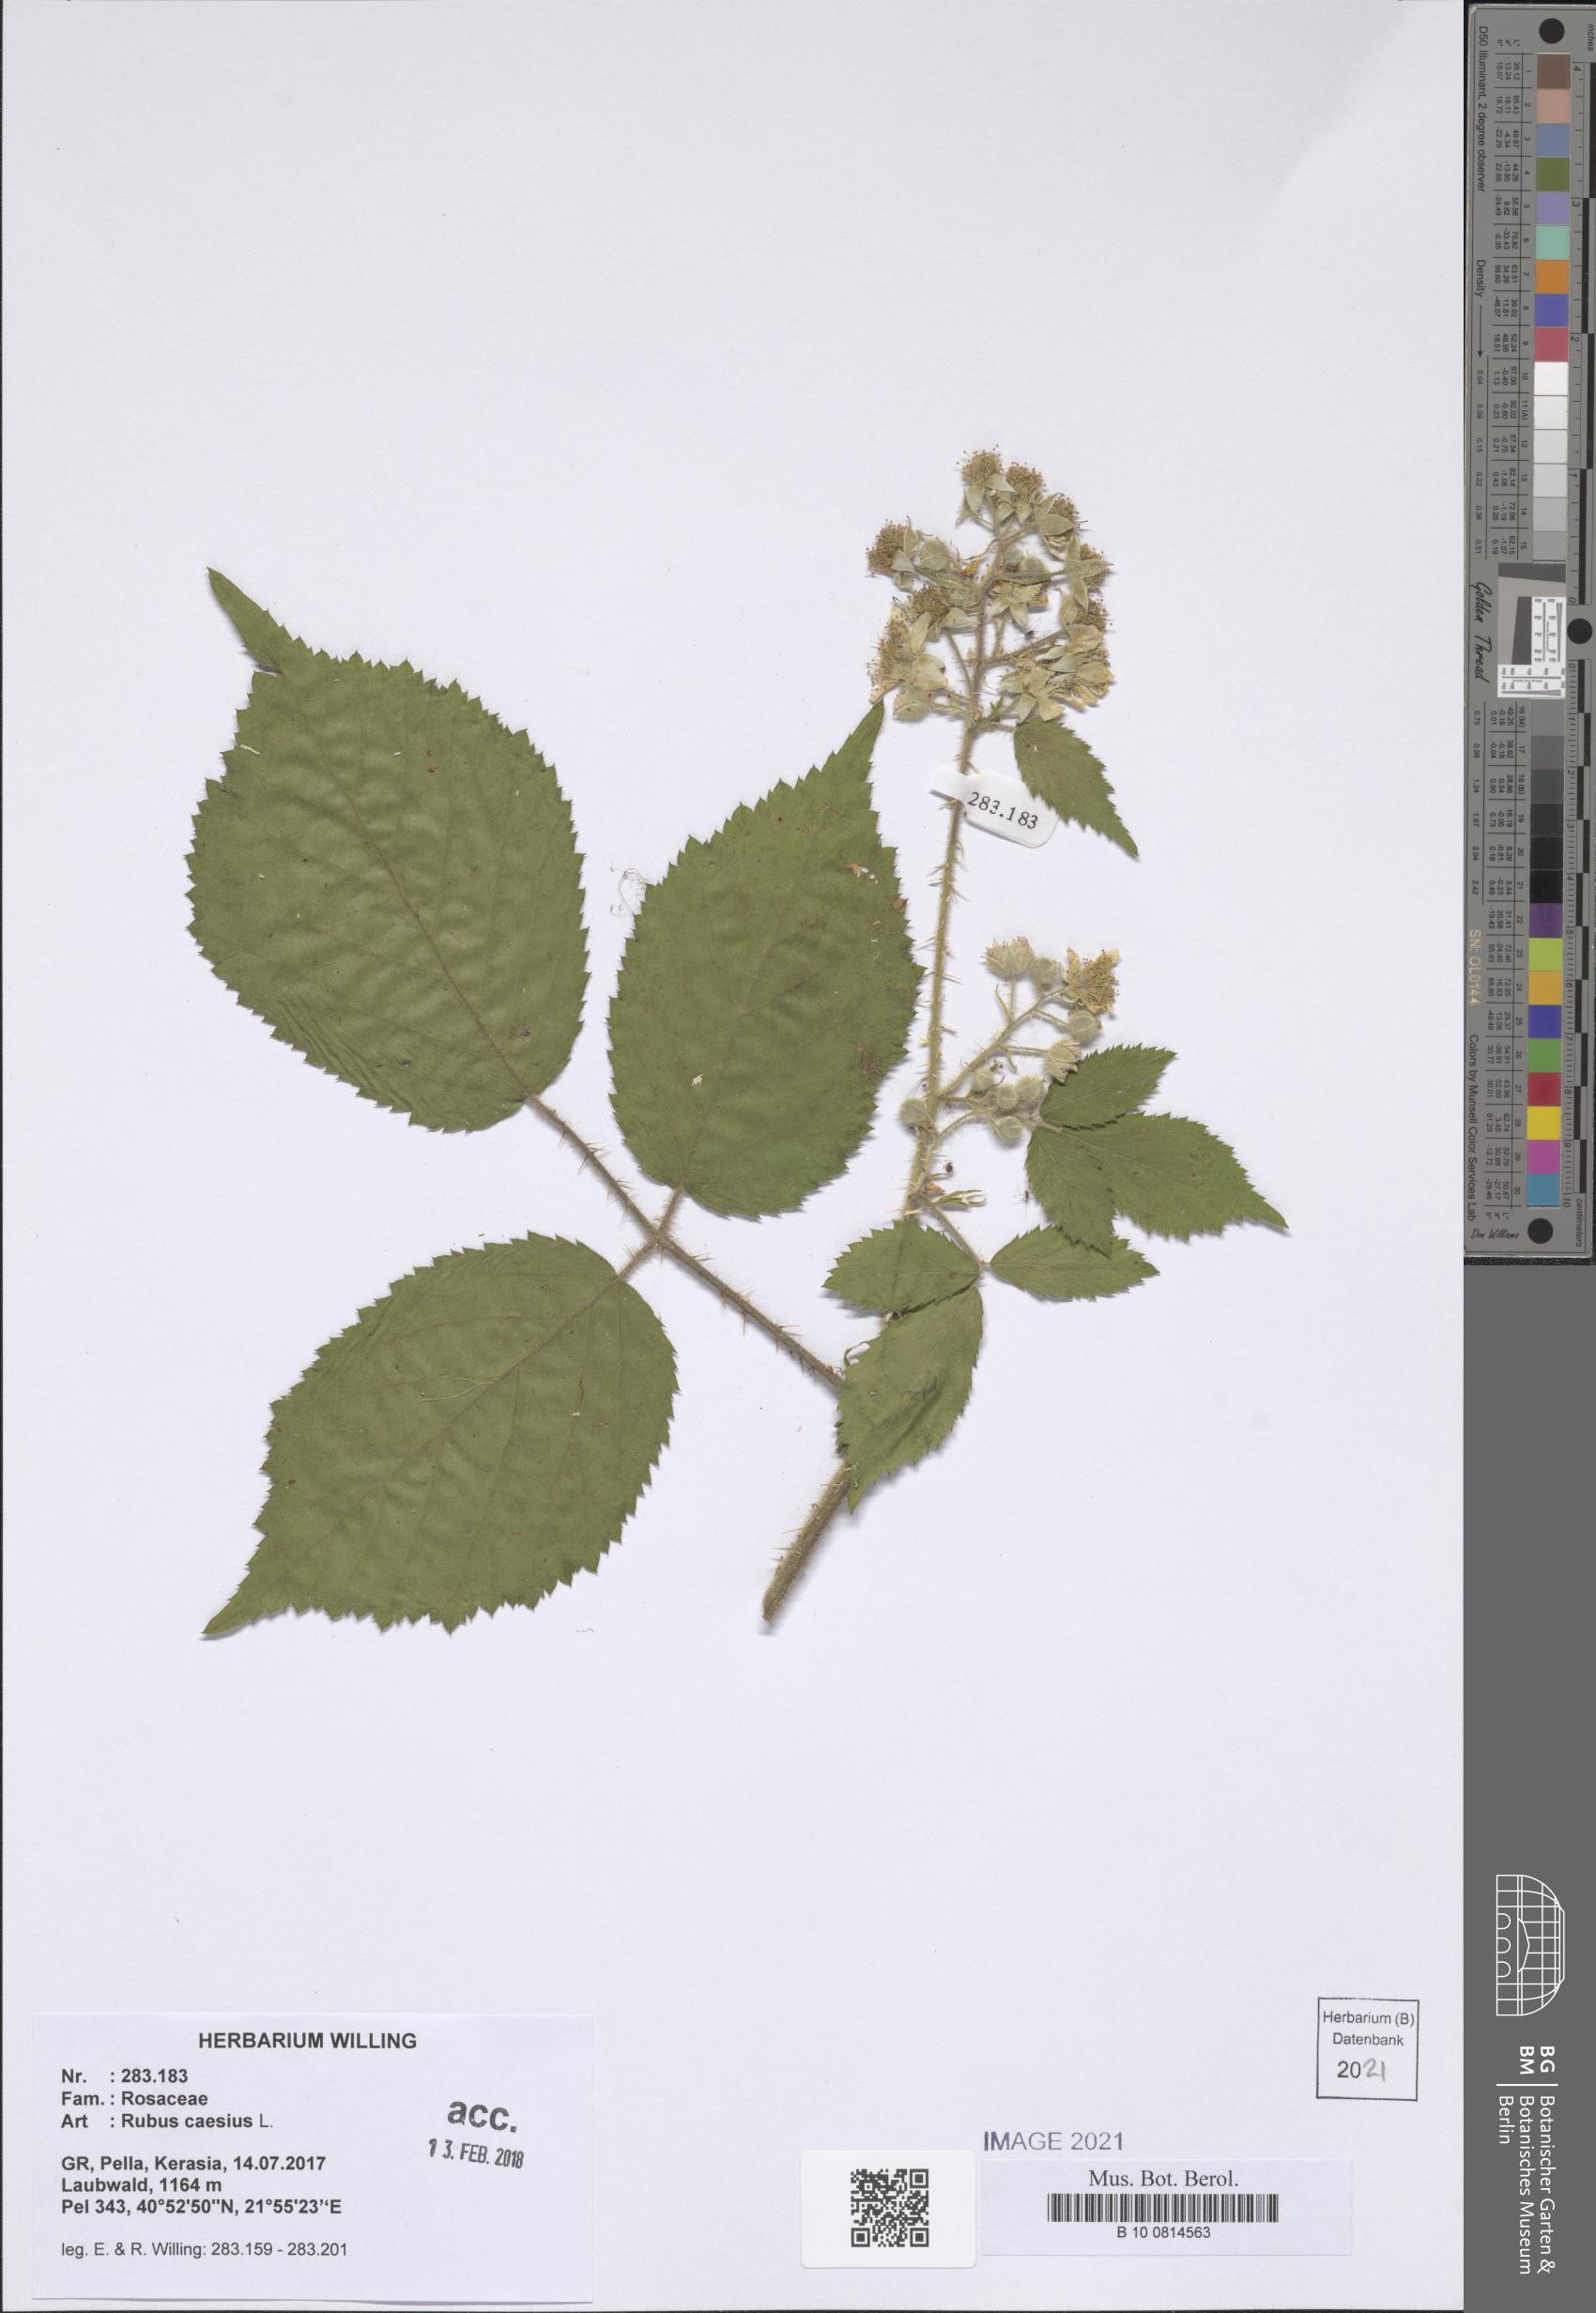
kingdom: Plantae
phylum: Tracheophyta
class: Magnoliopsida
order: Rosales
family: Rosaceae
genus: Rubus
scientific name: Rubus caesius
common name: Dewberry
